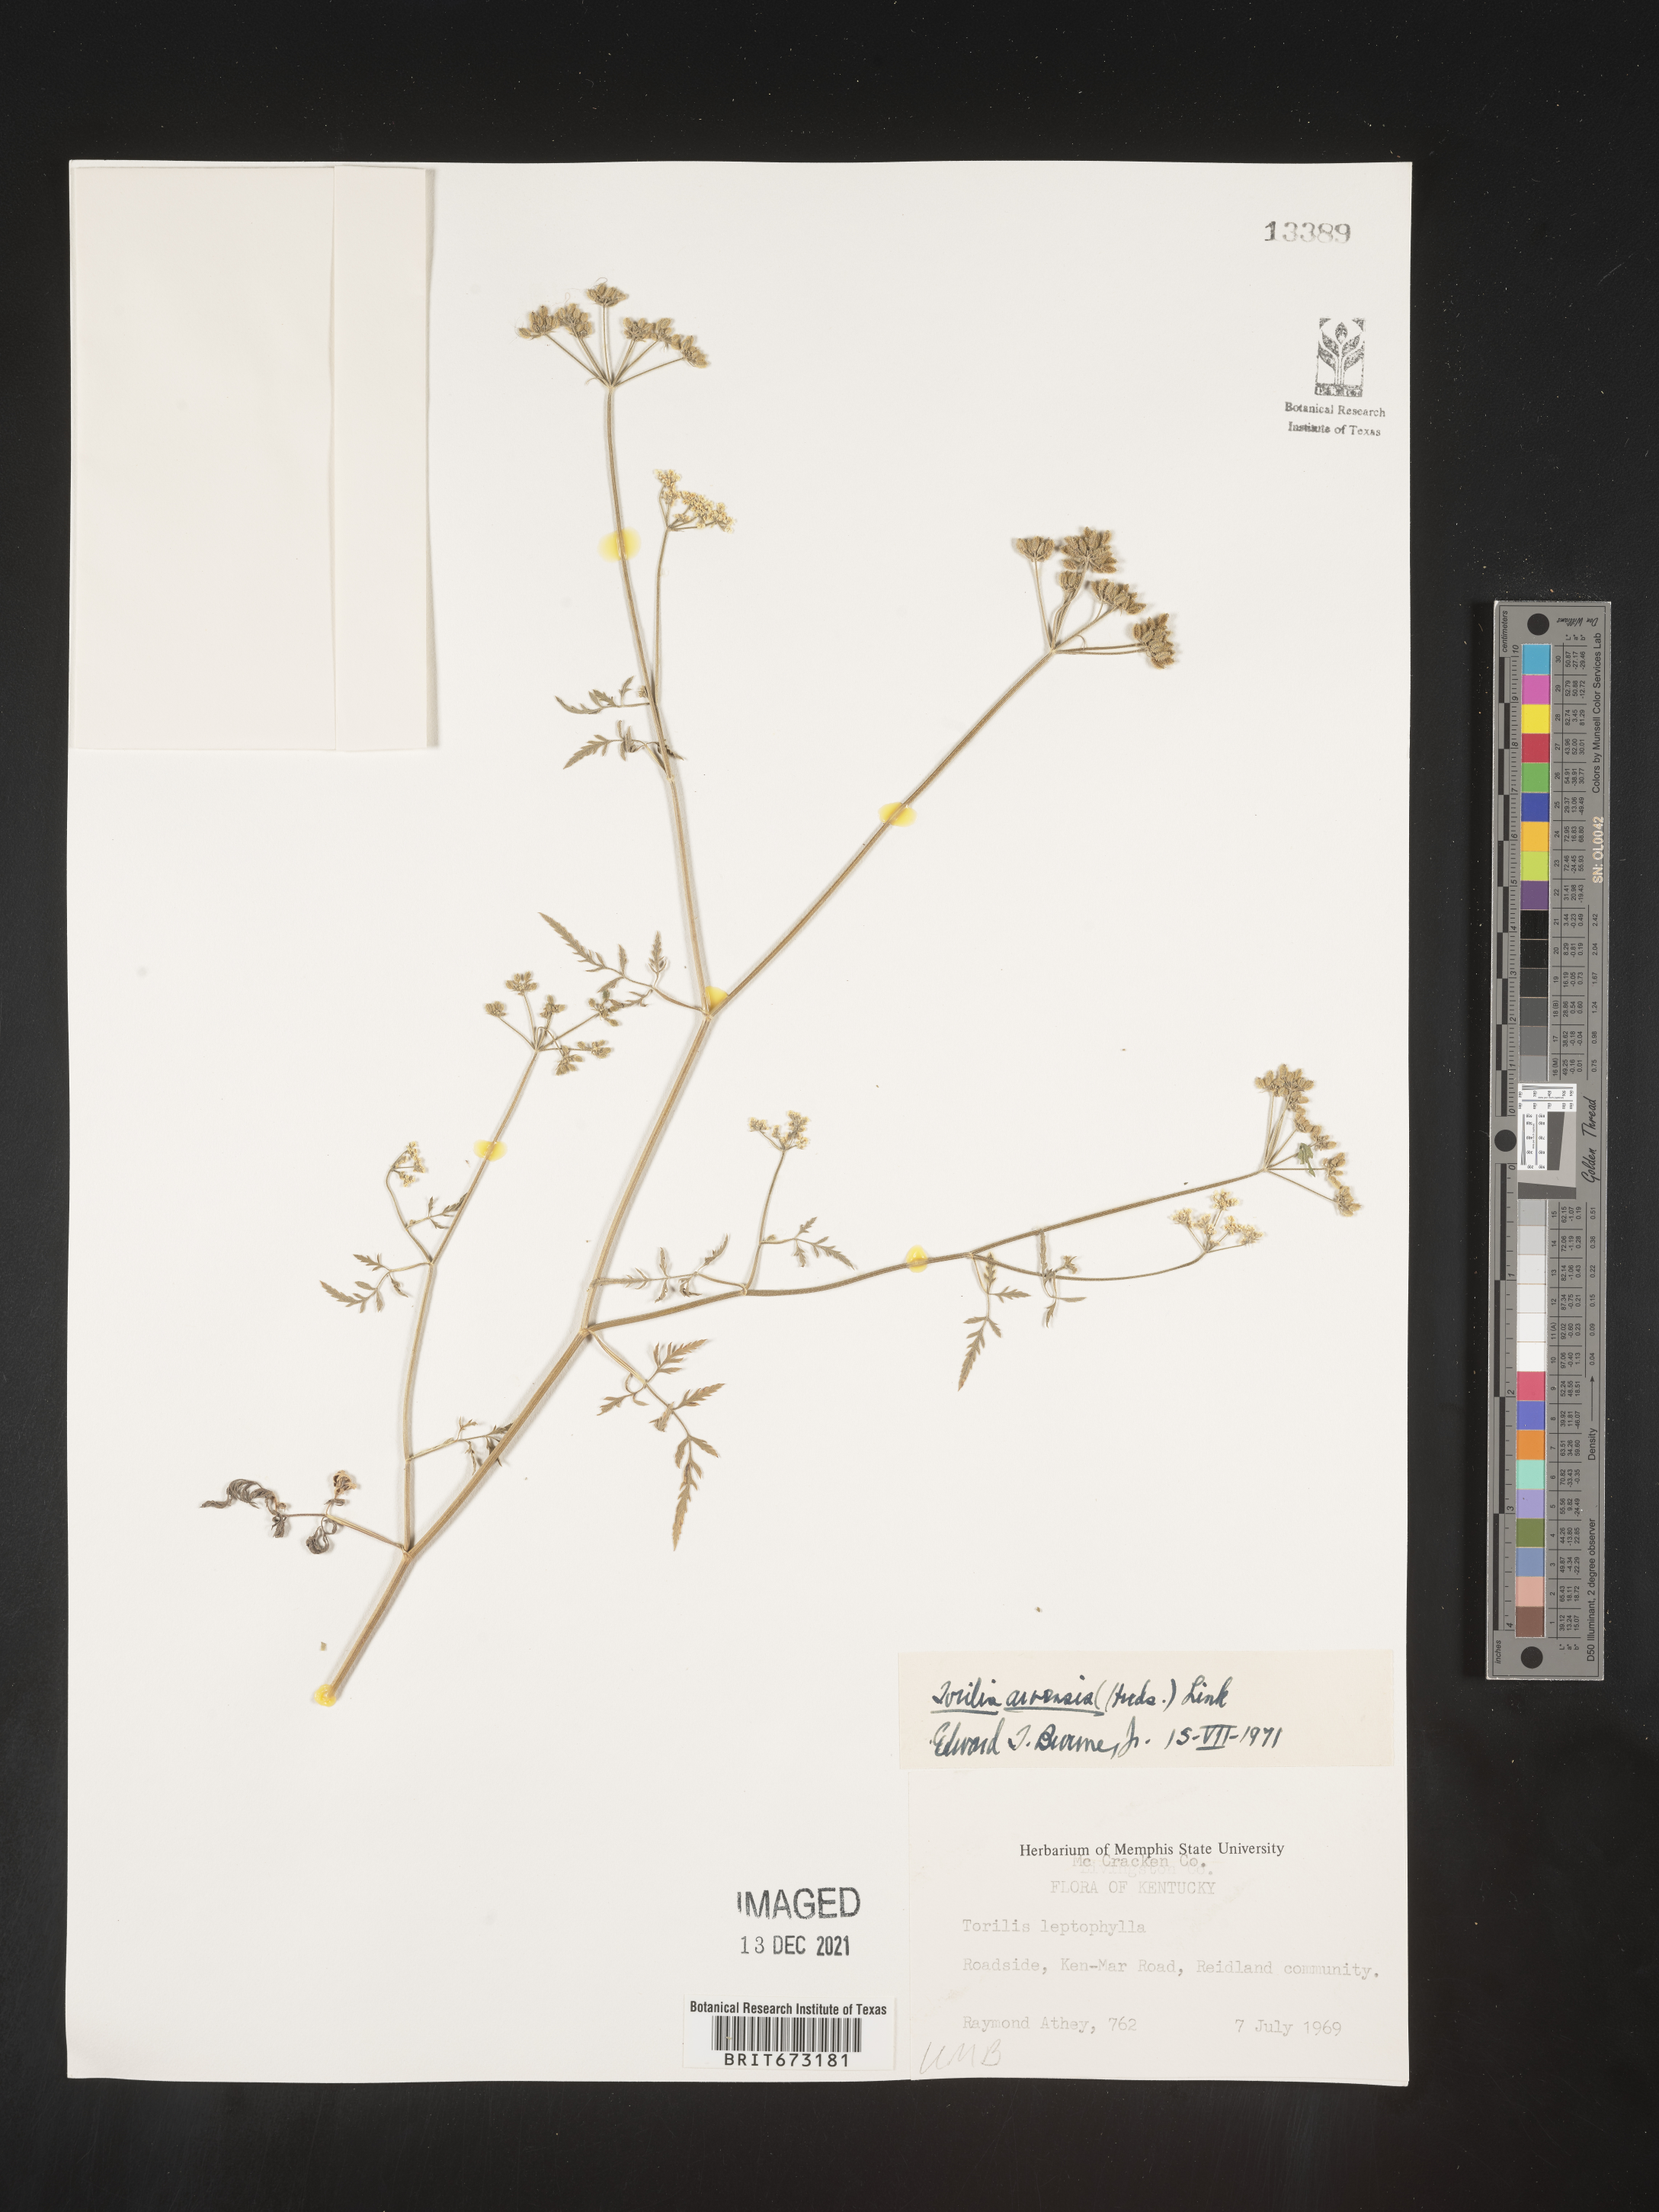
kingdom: Plantae
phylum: Tracheophyta
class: Magnoliopsida
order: Apiales
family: Apiaceae
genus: Torilis
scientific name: Torilis arvensis
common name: Spreading hedge-parsley
